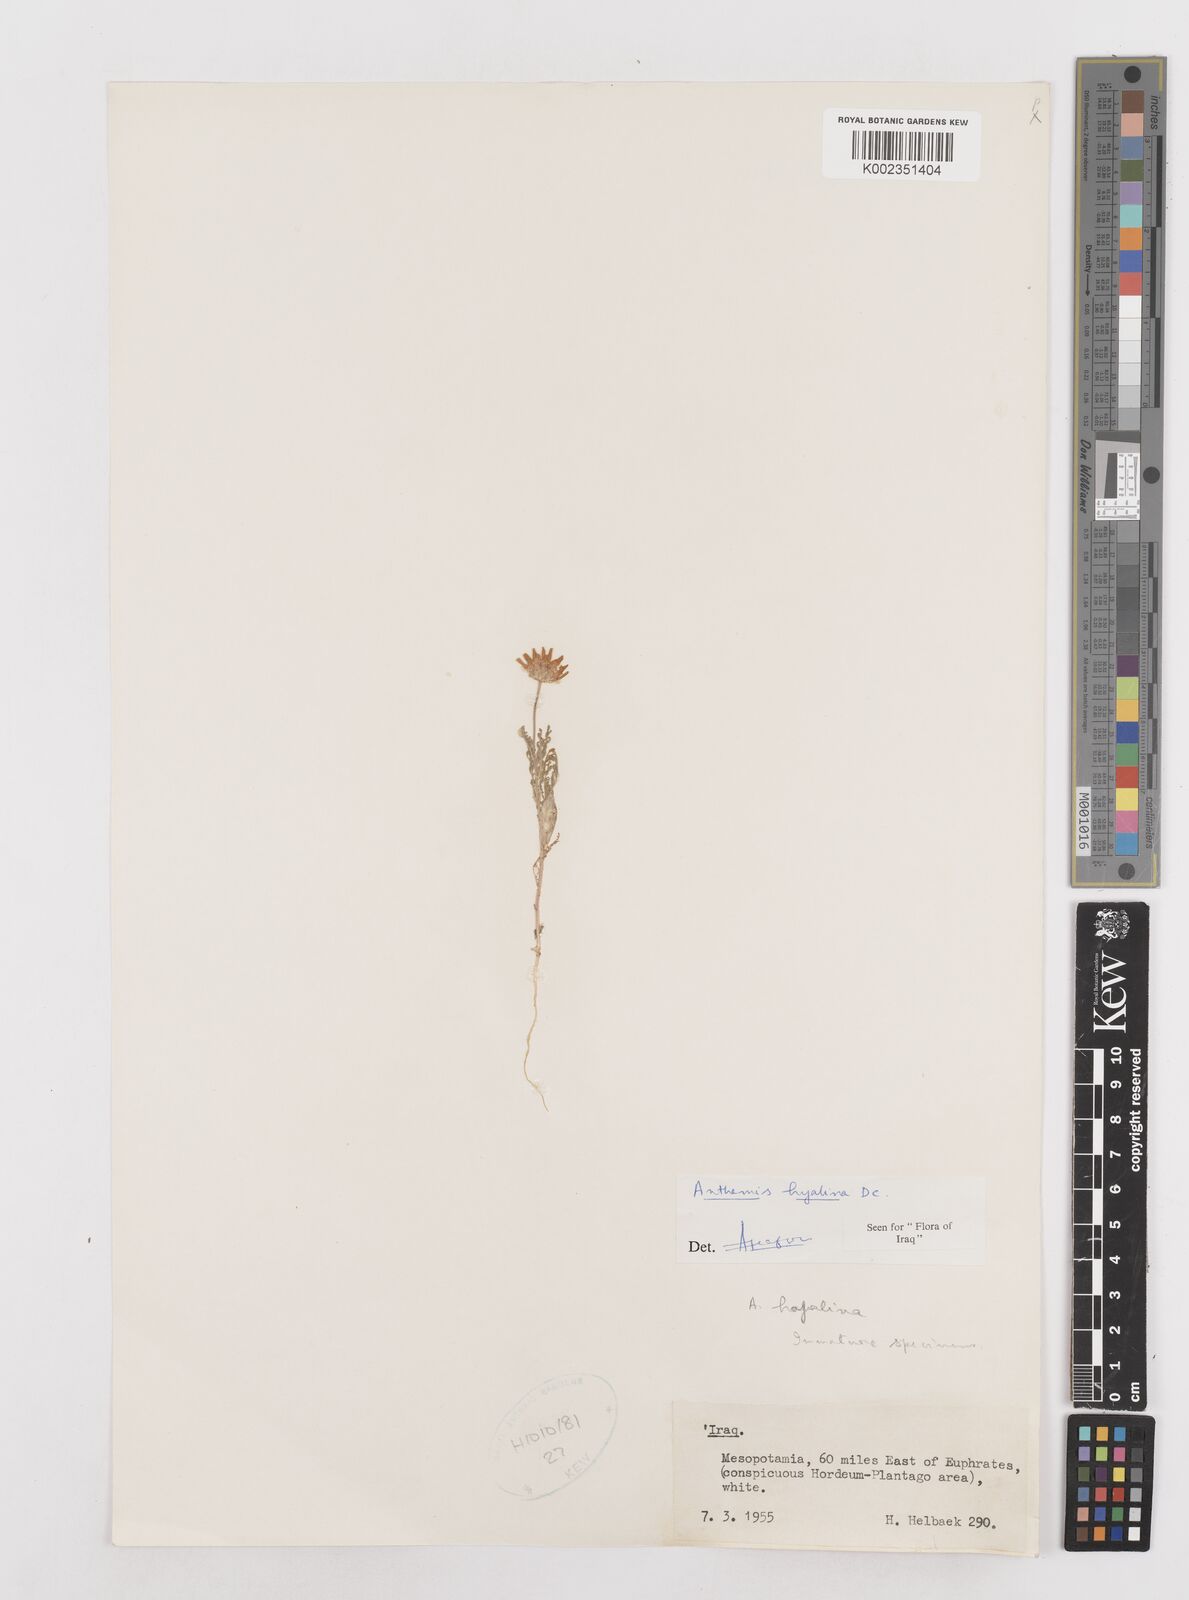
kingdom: Plantae
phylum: Tracheophyta
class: Magnoliopsida
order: Asterales
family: Asteraceae
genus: Anthemis
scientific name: Anthemis hyalina
